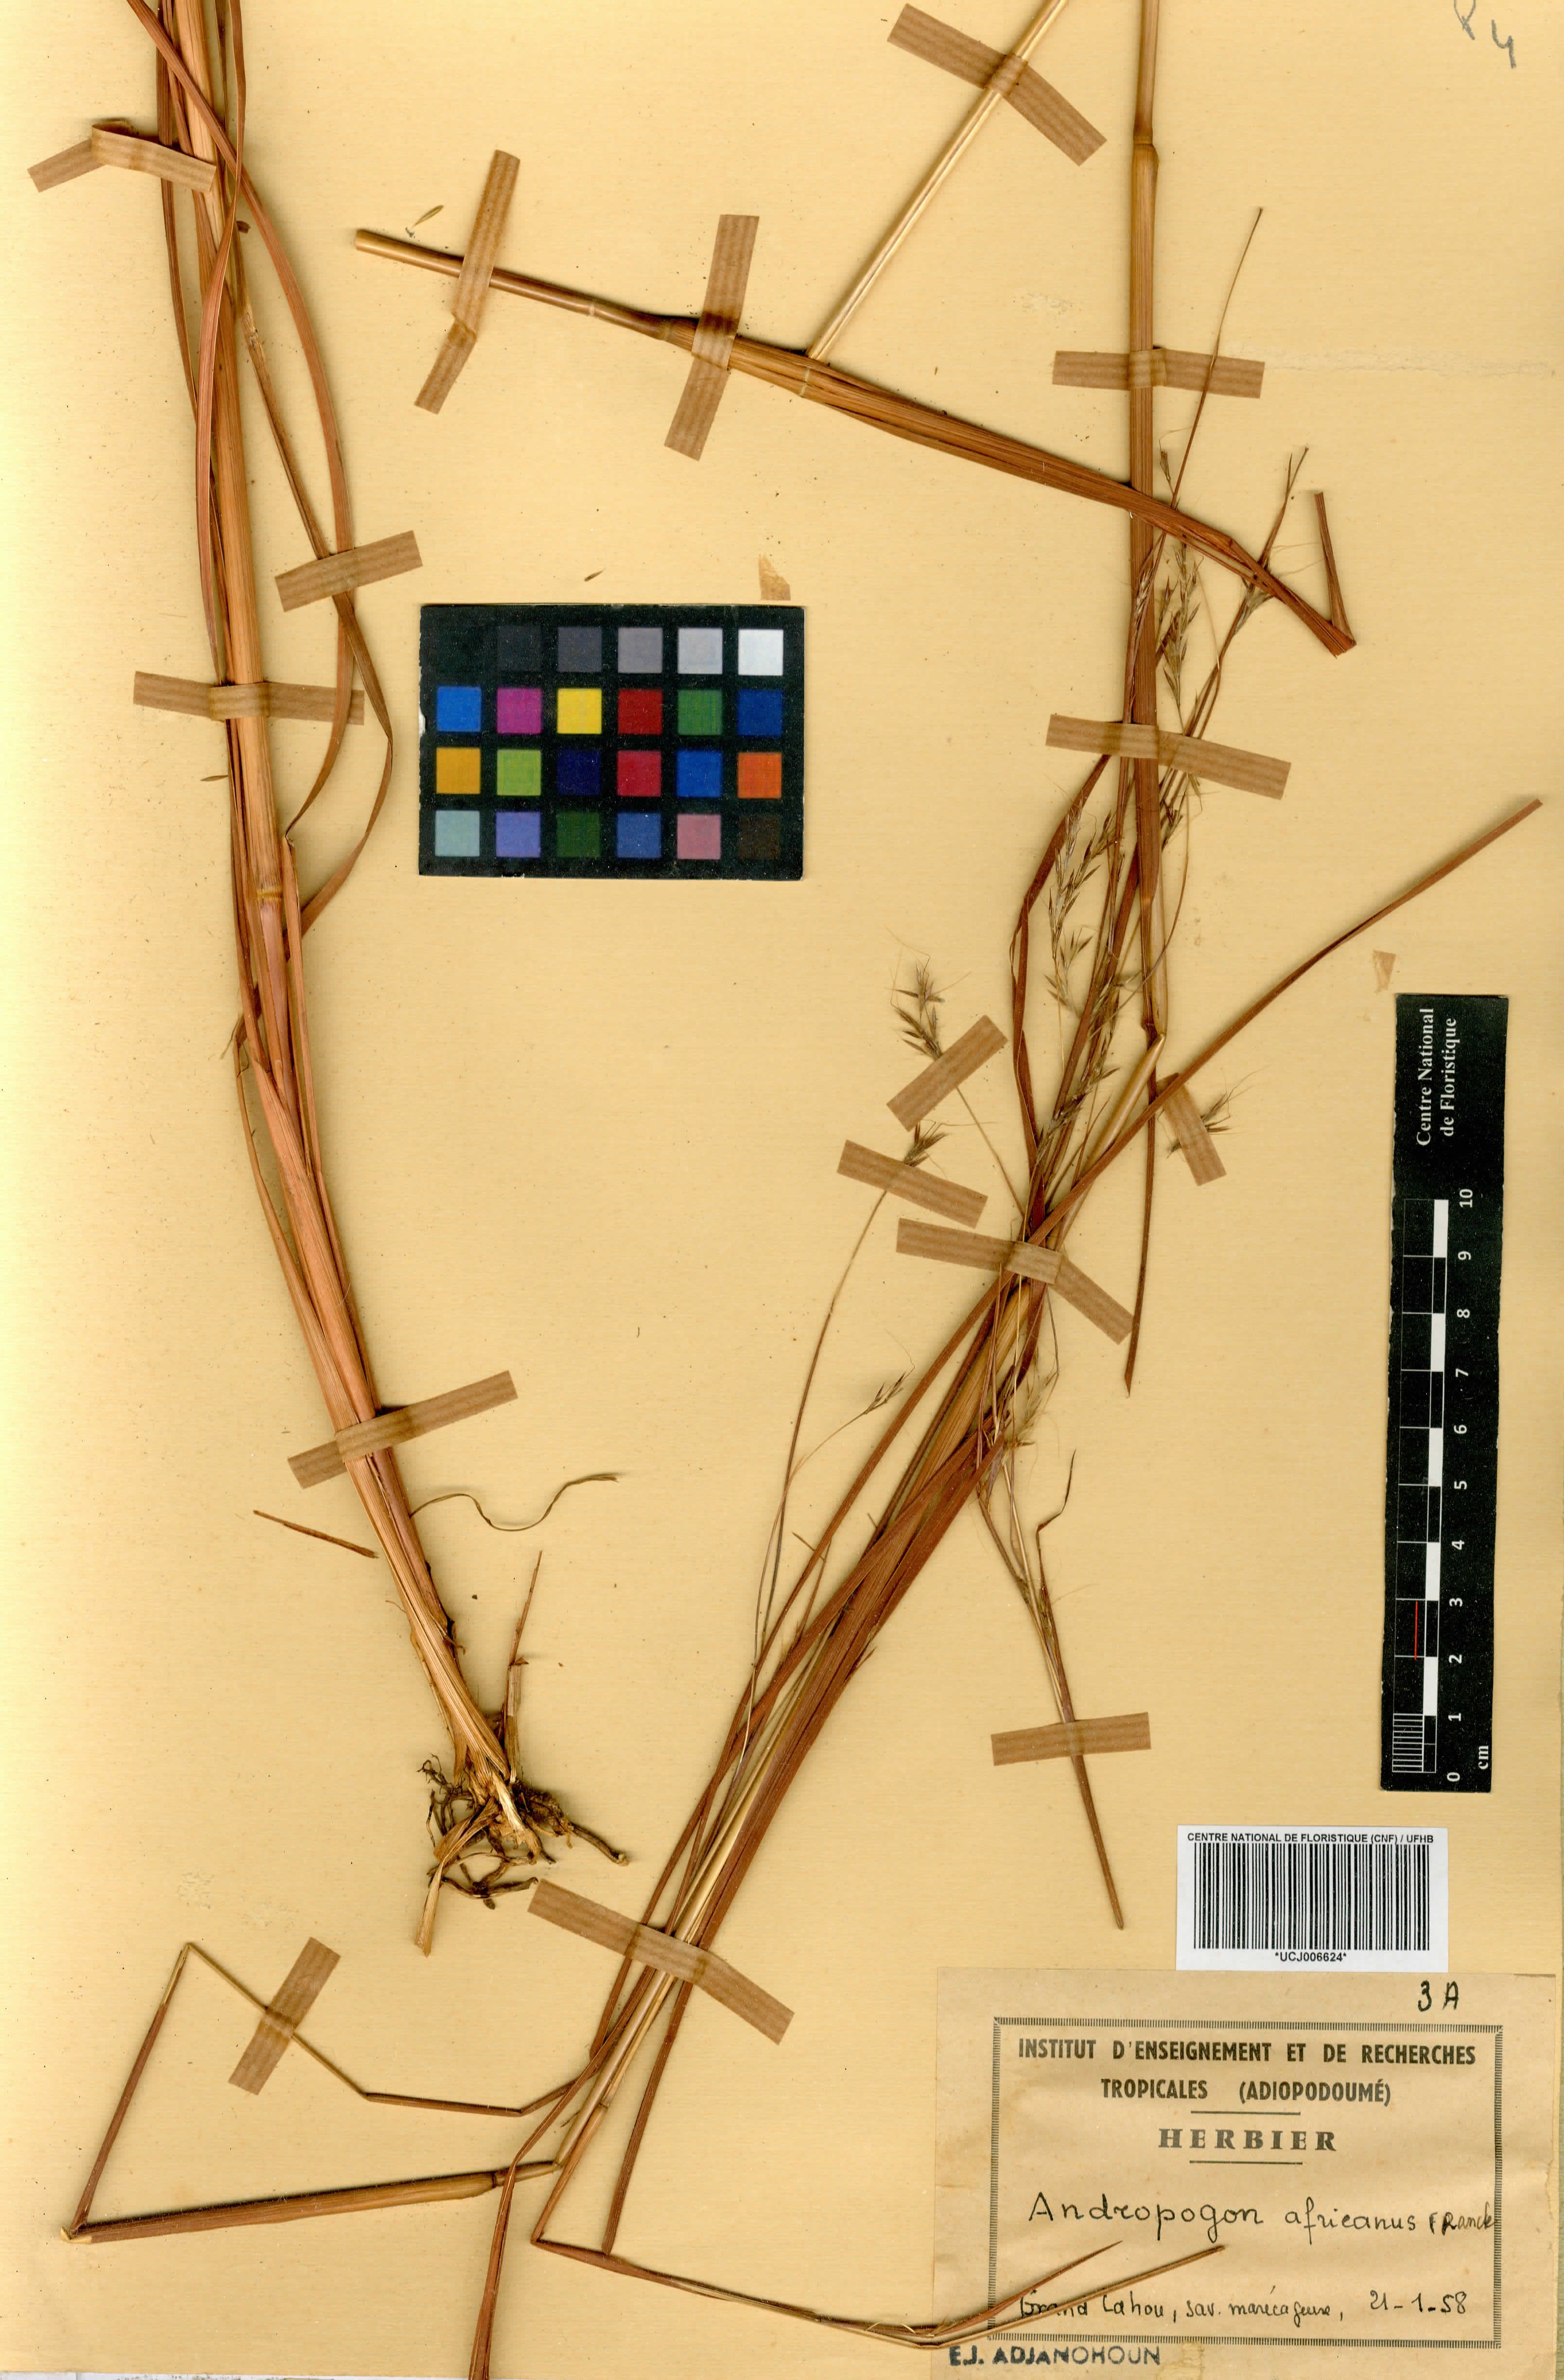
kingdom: Plantae
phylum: Tracheophyta
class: Liliopsida
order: Poales
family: Poaceae
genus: Andropogon
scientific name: Andropogon africanus
